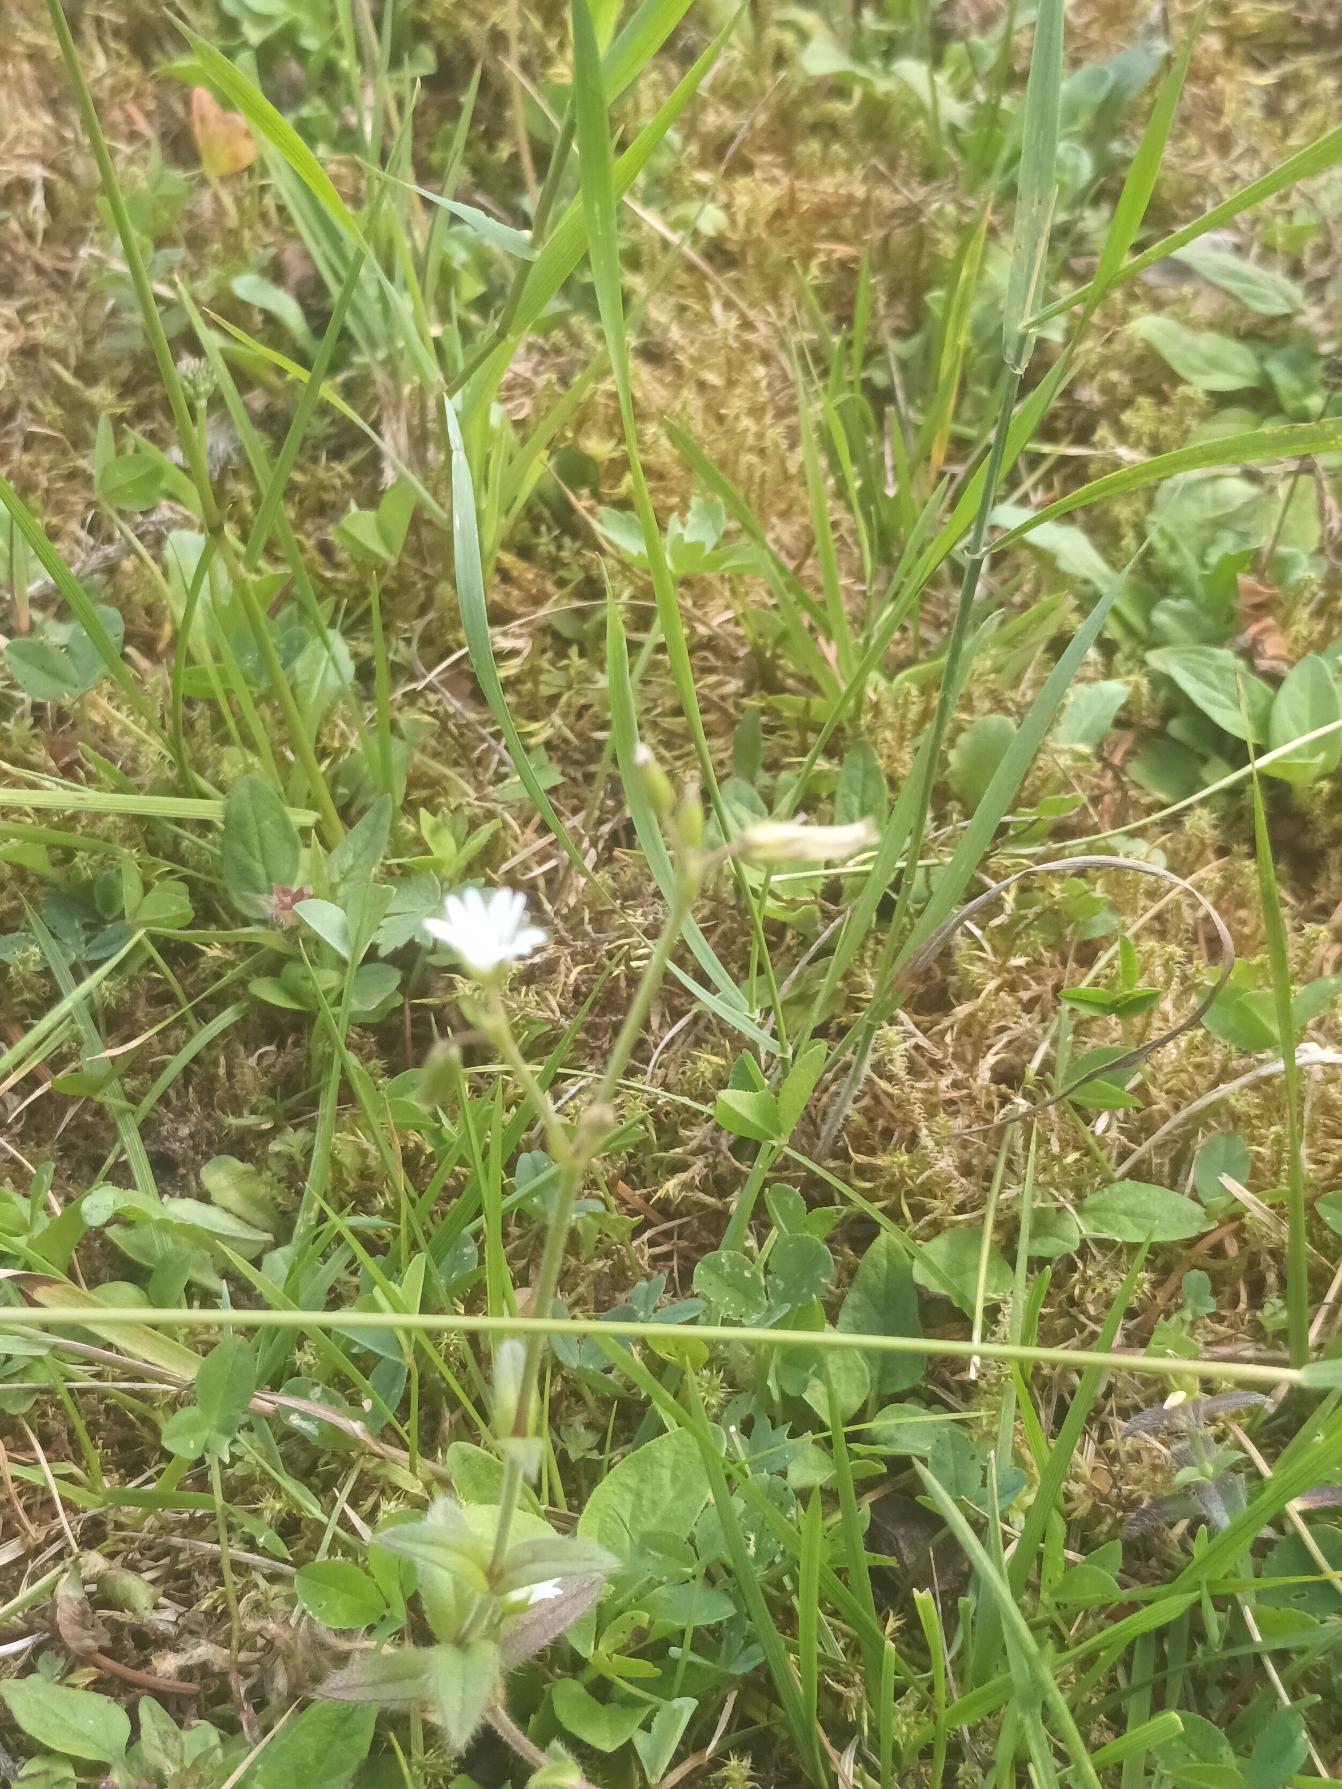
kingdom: Plantae
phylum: Tracheophyta
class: Magnoliopsida
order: Caryophyllales
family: Caryophyllaceae
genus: Cerastium
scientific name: Cerastium fontanum
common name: Almindelig hønsetarm
